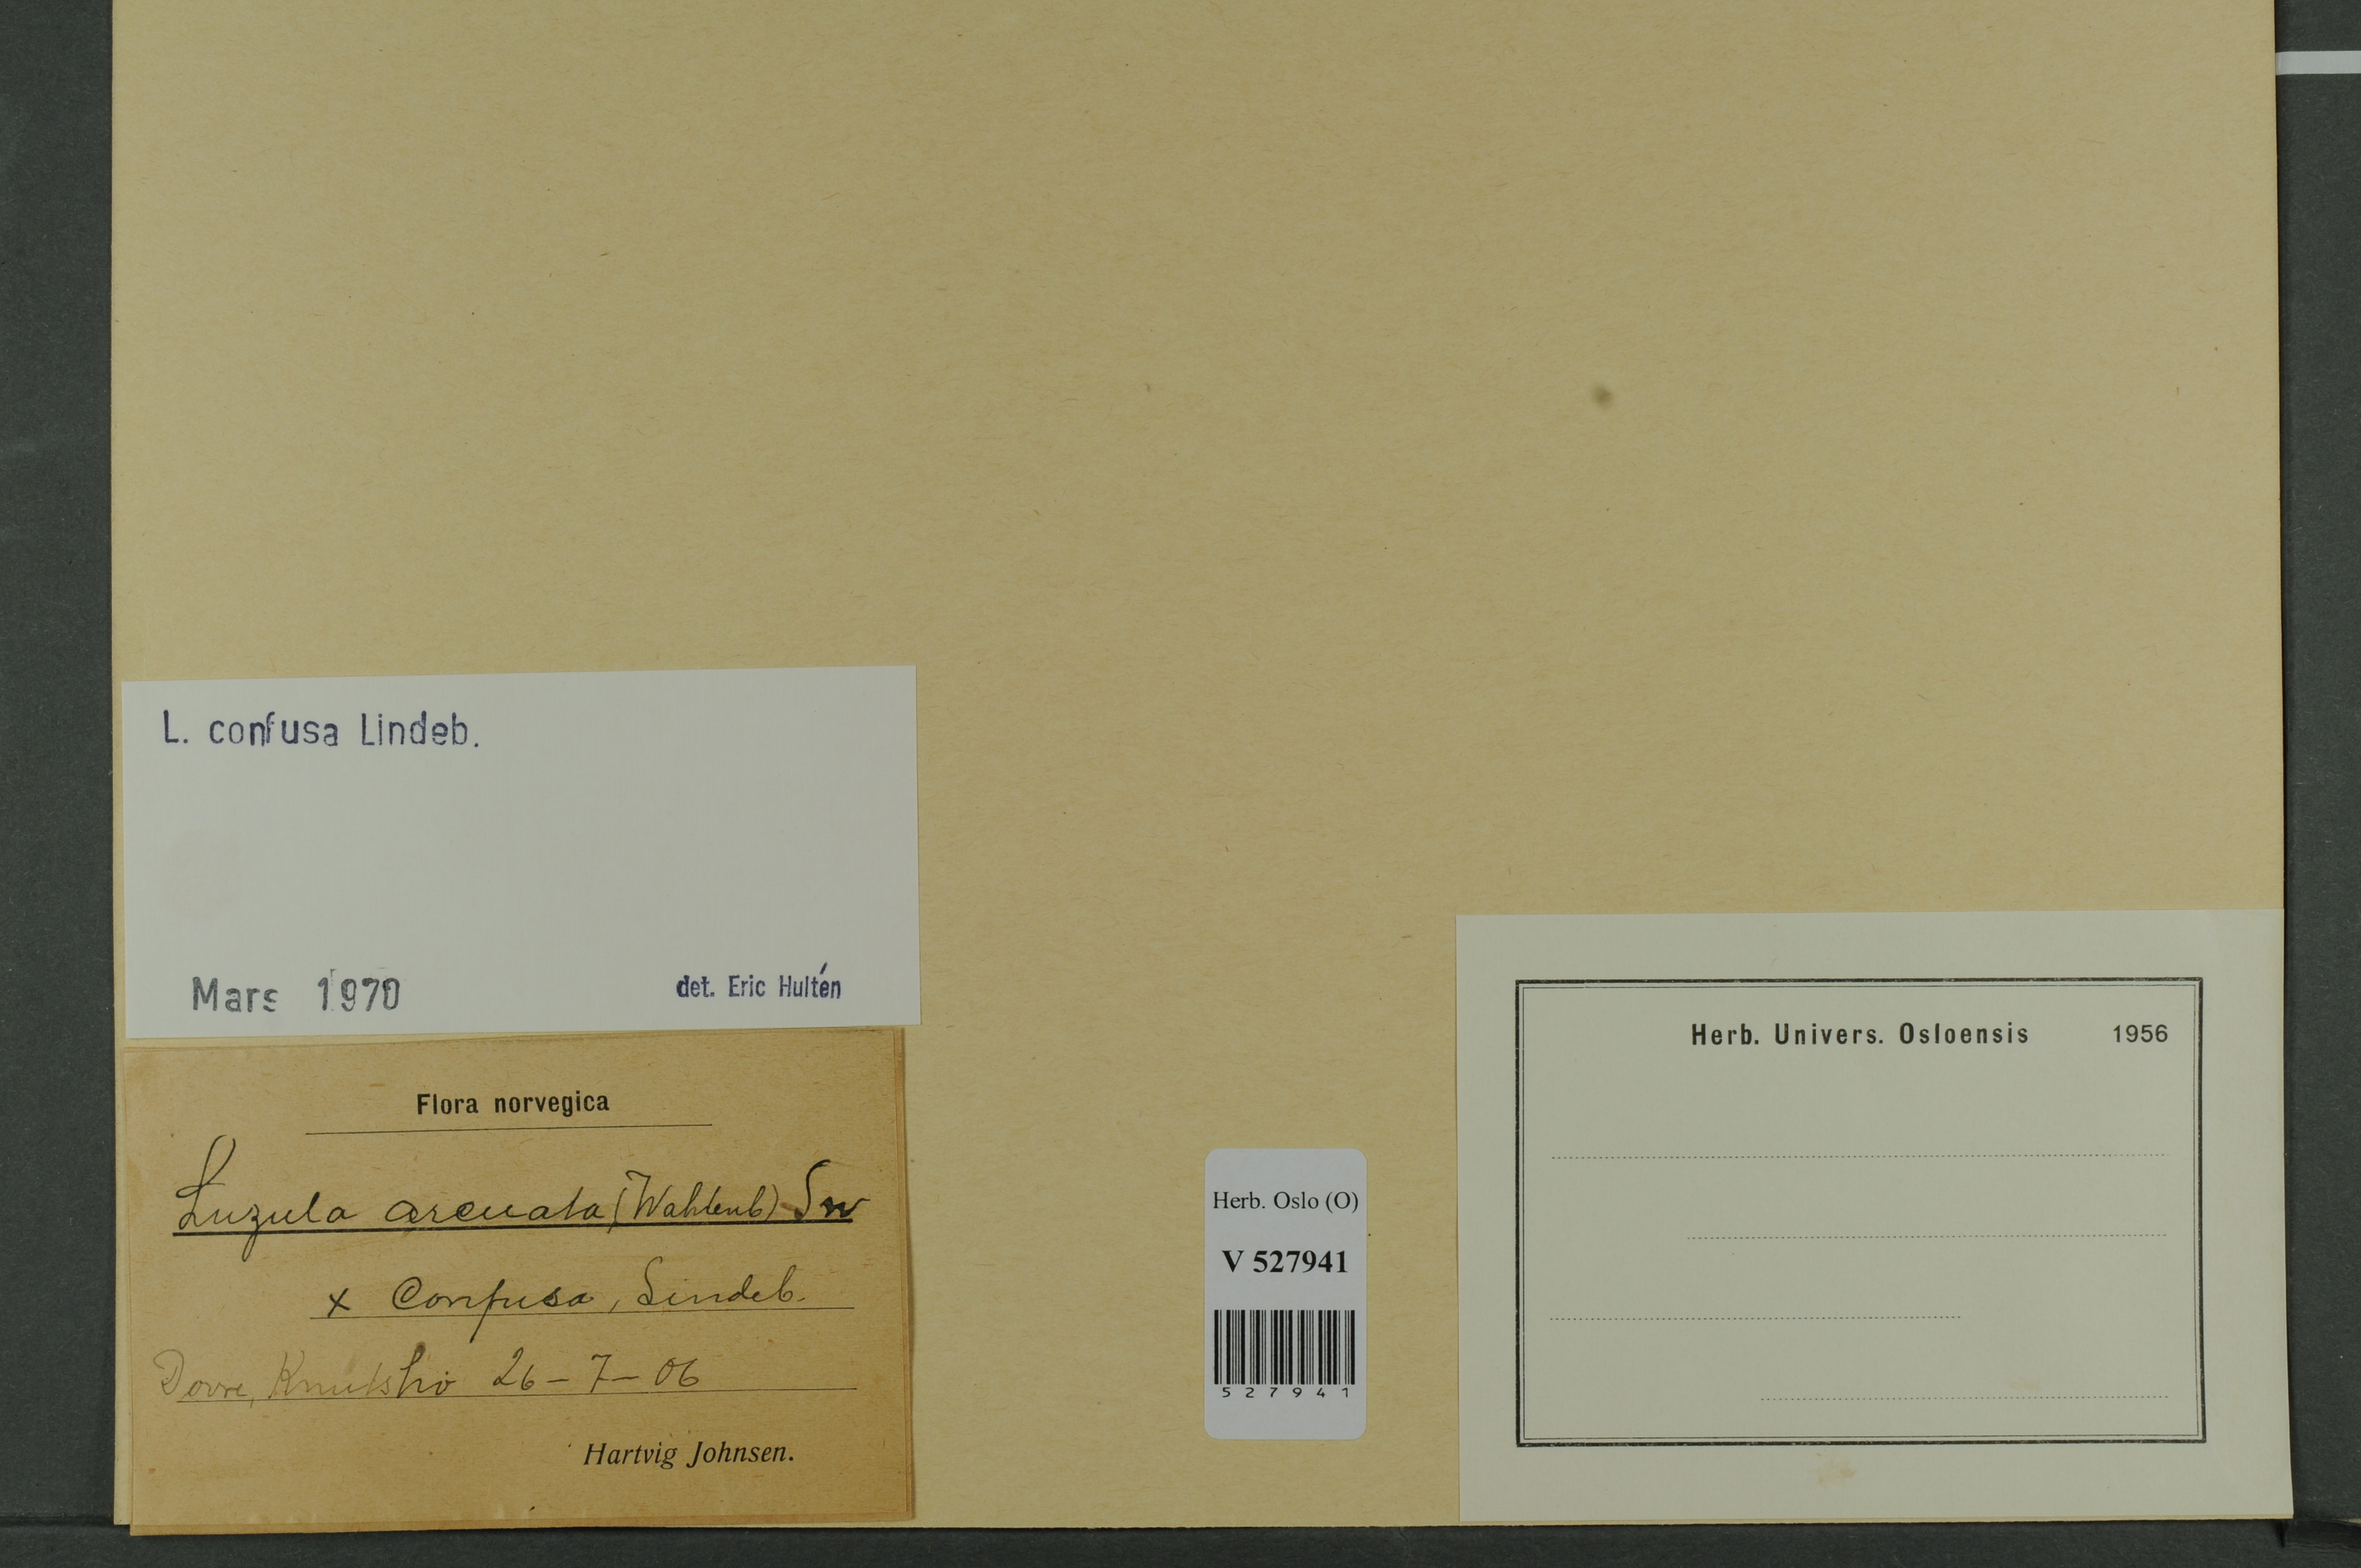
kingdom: Plantae
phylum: Tracheophyta
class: Liliopsida
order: Poales
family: Juncaceae
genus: Luzula
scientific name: Luzula confusa
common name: Northern wood rush
